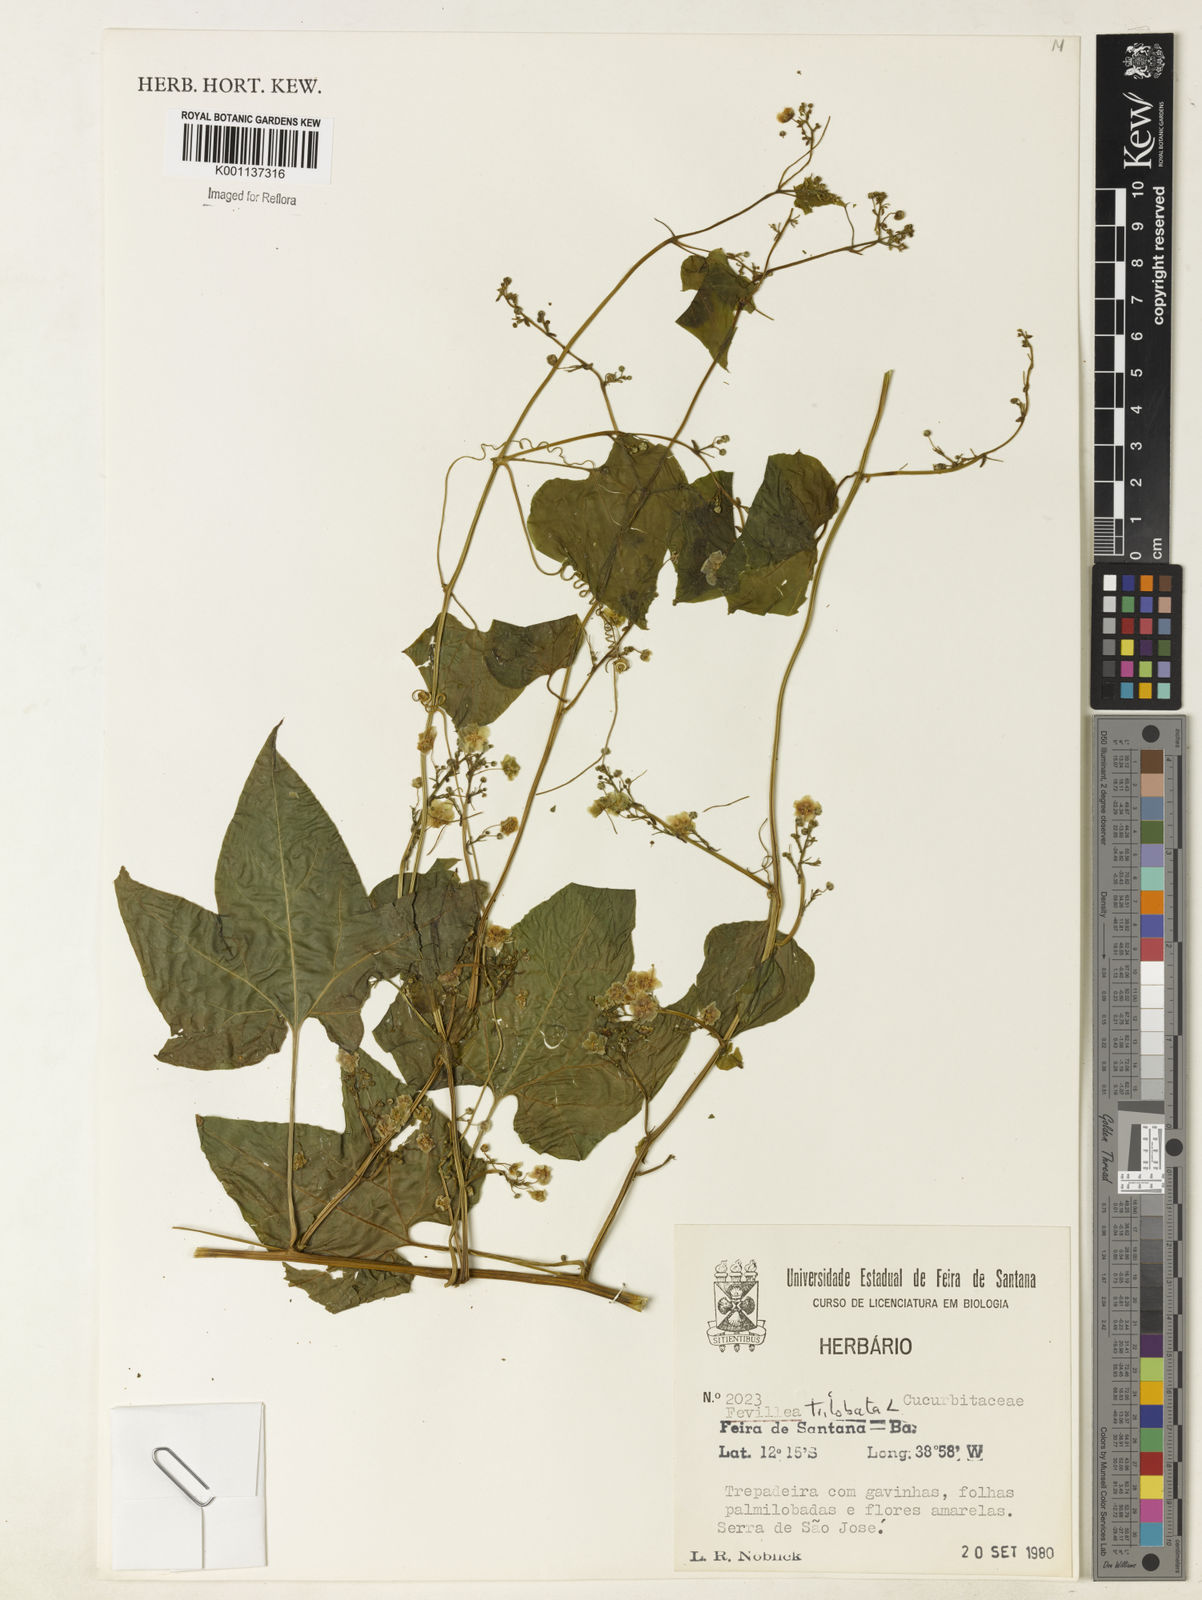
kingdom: Plantae
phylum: Tracheophyta
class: Magnoliopsida
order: Cucurbitales
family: Cucurbitaceae
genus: Fevillea
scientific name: Fevillea trilobata
